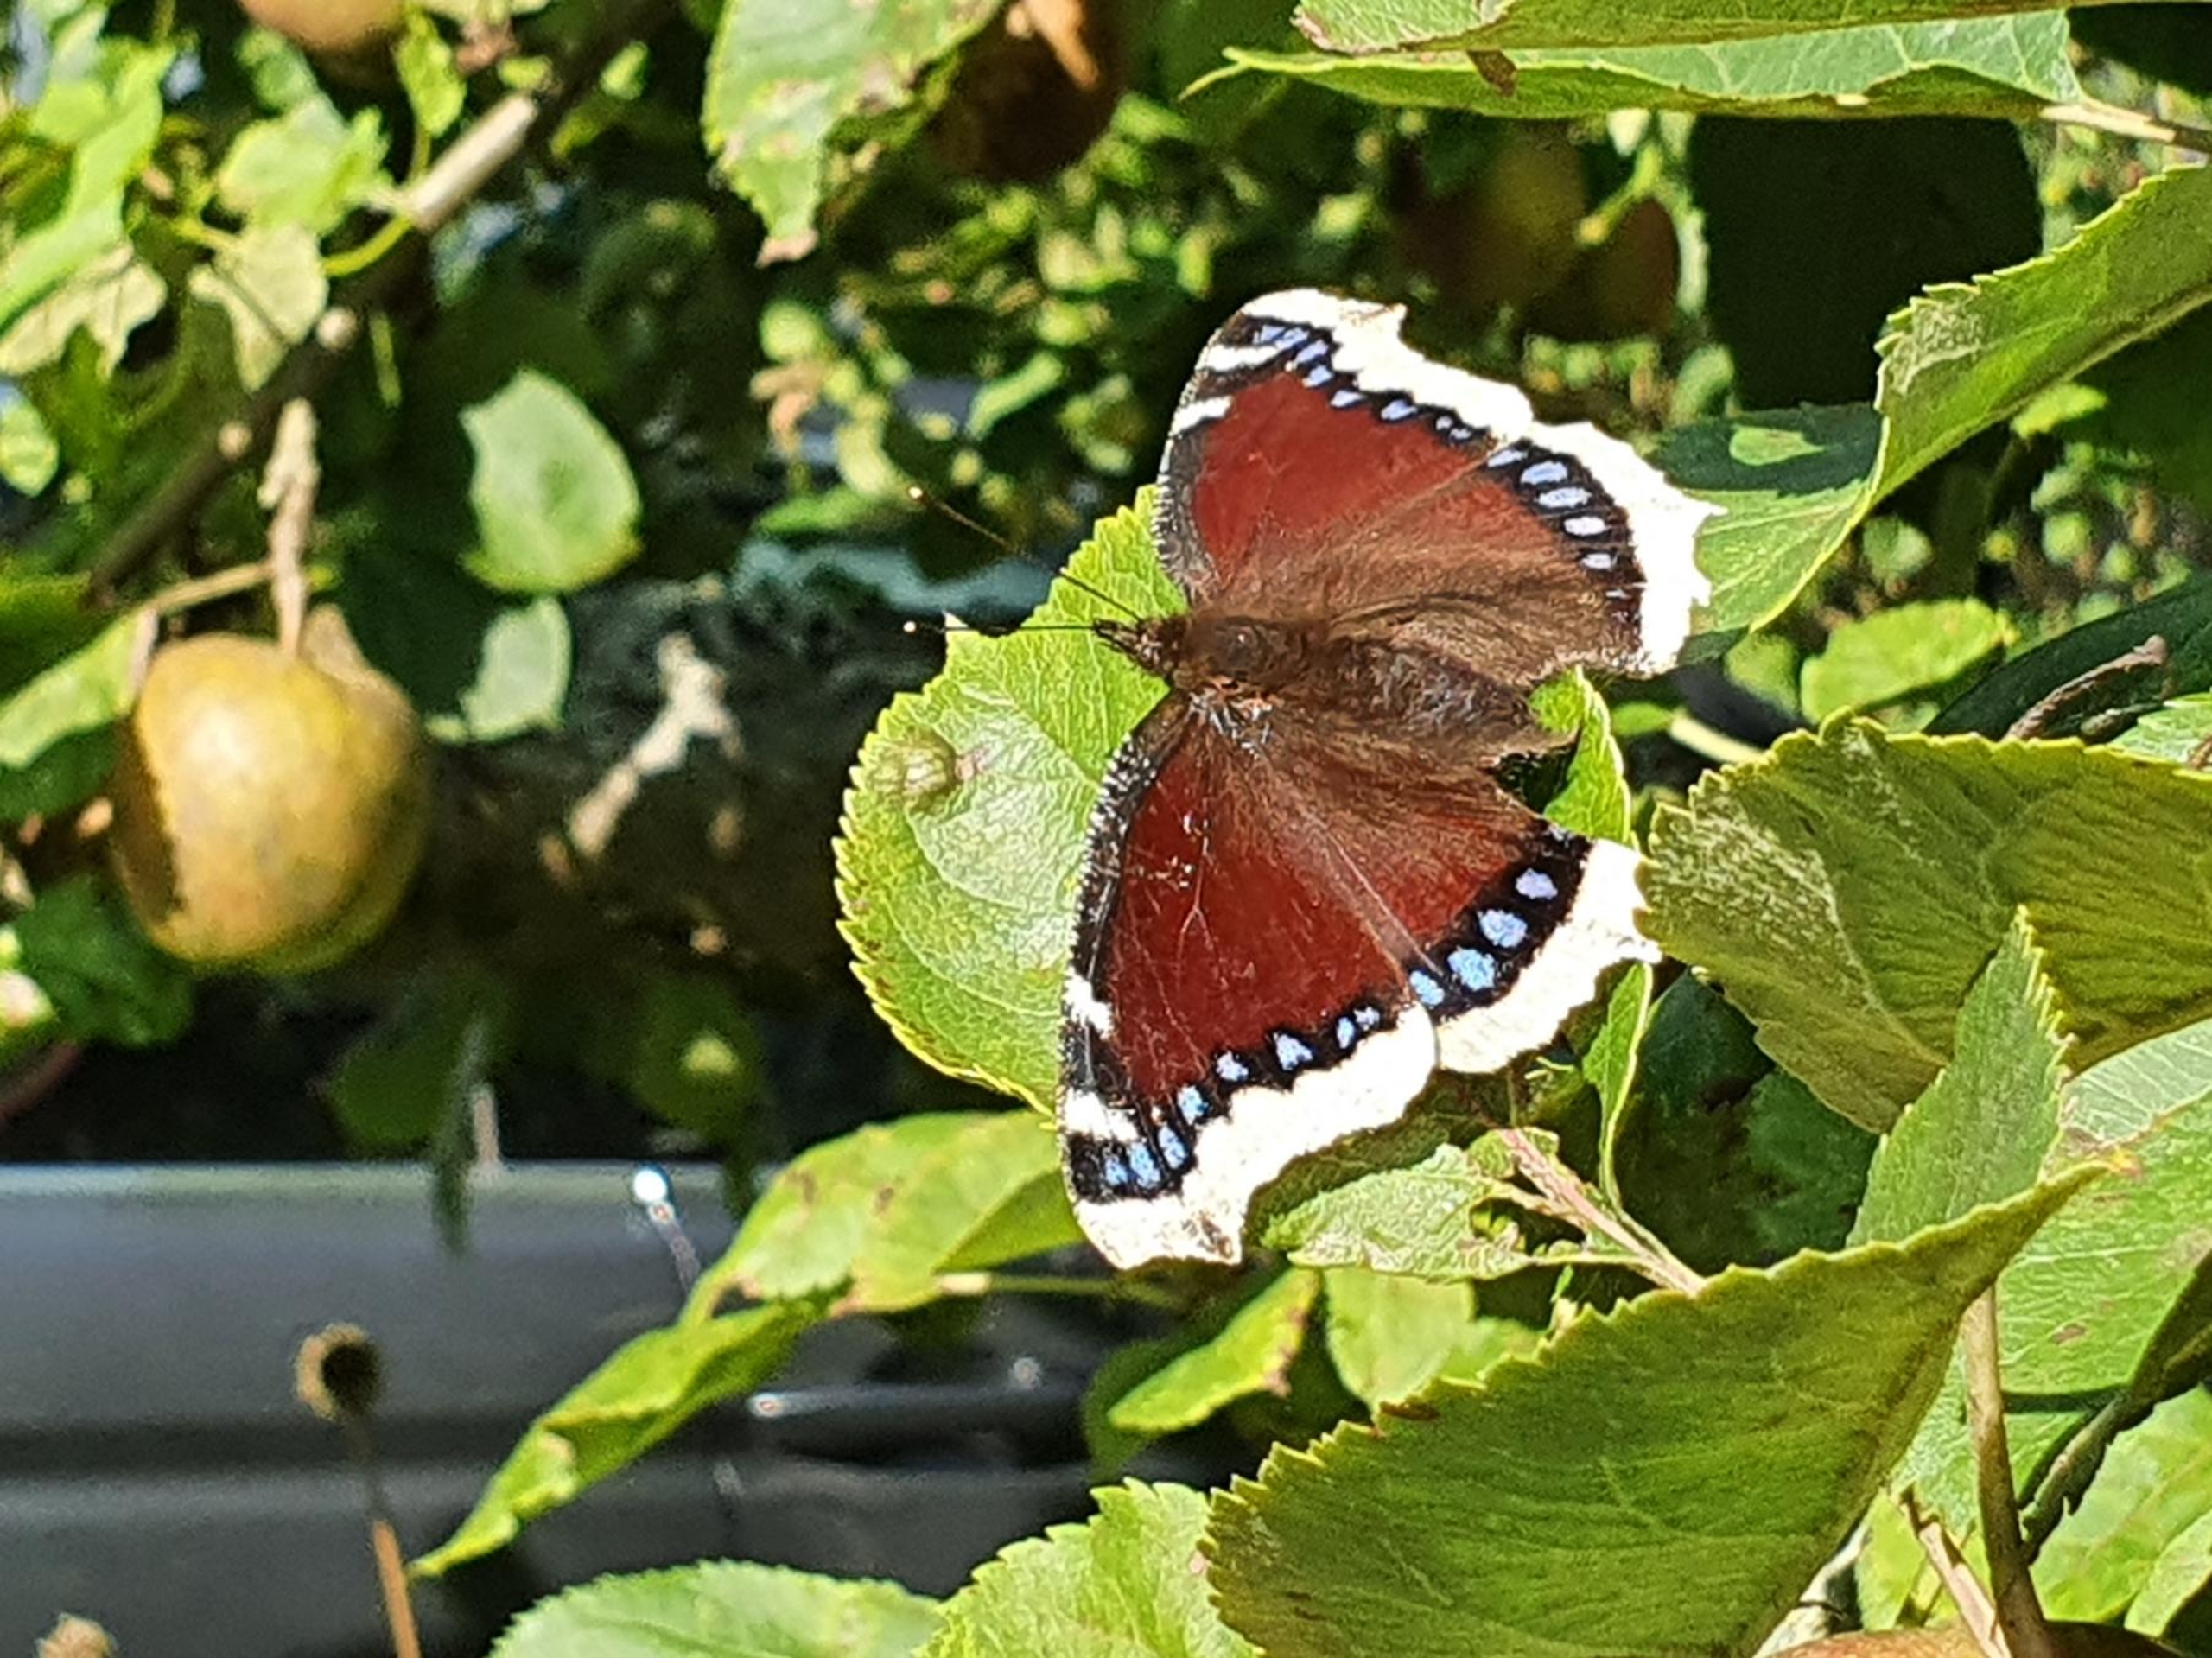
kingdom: Animalia
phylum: Arthropoda
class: Insecta
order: Lepidoptera
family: Nymphalidae
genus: Nymphalis
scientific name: Nymphalis antiopa
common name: Sørgekåbe
